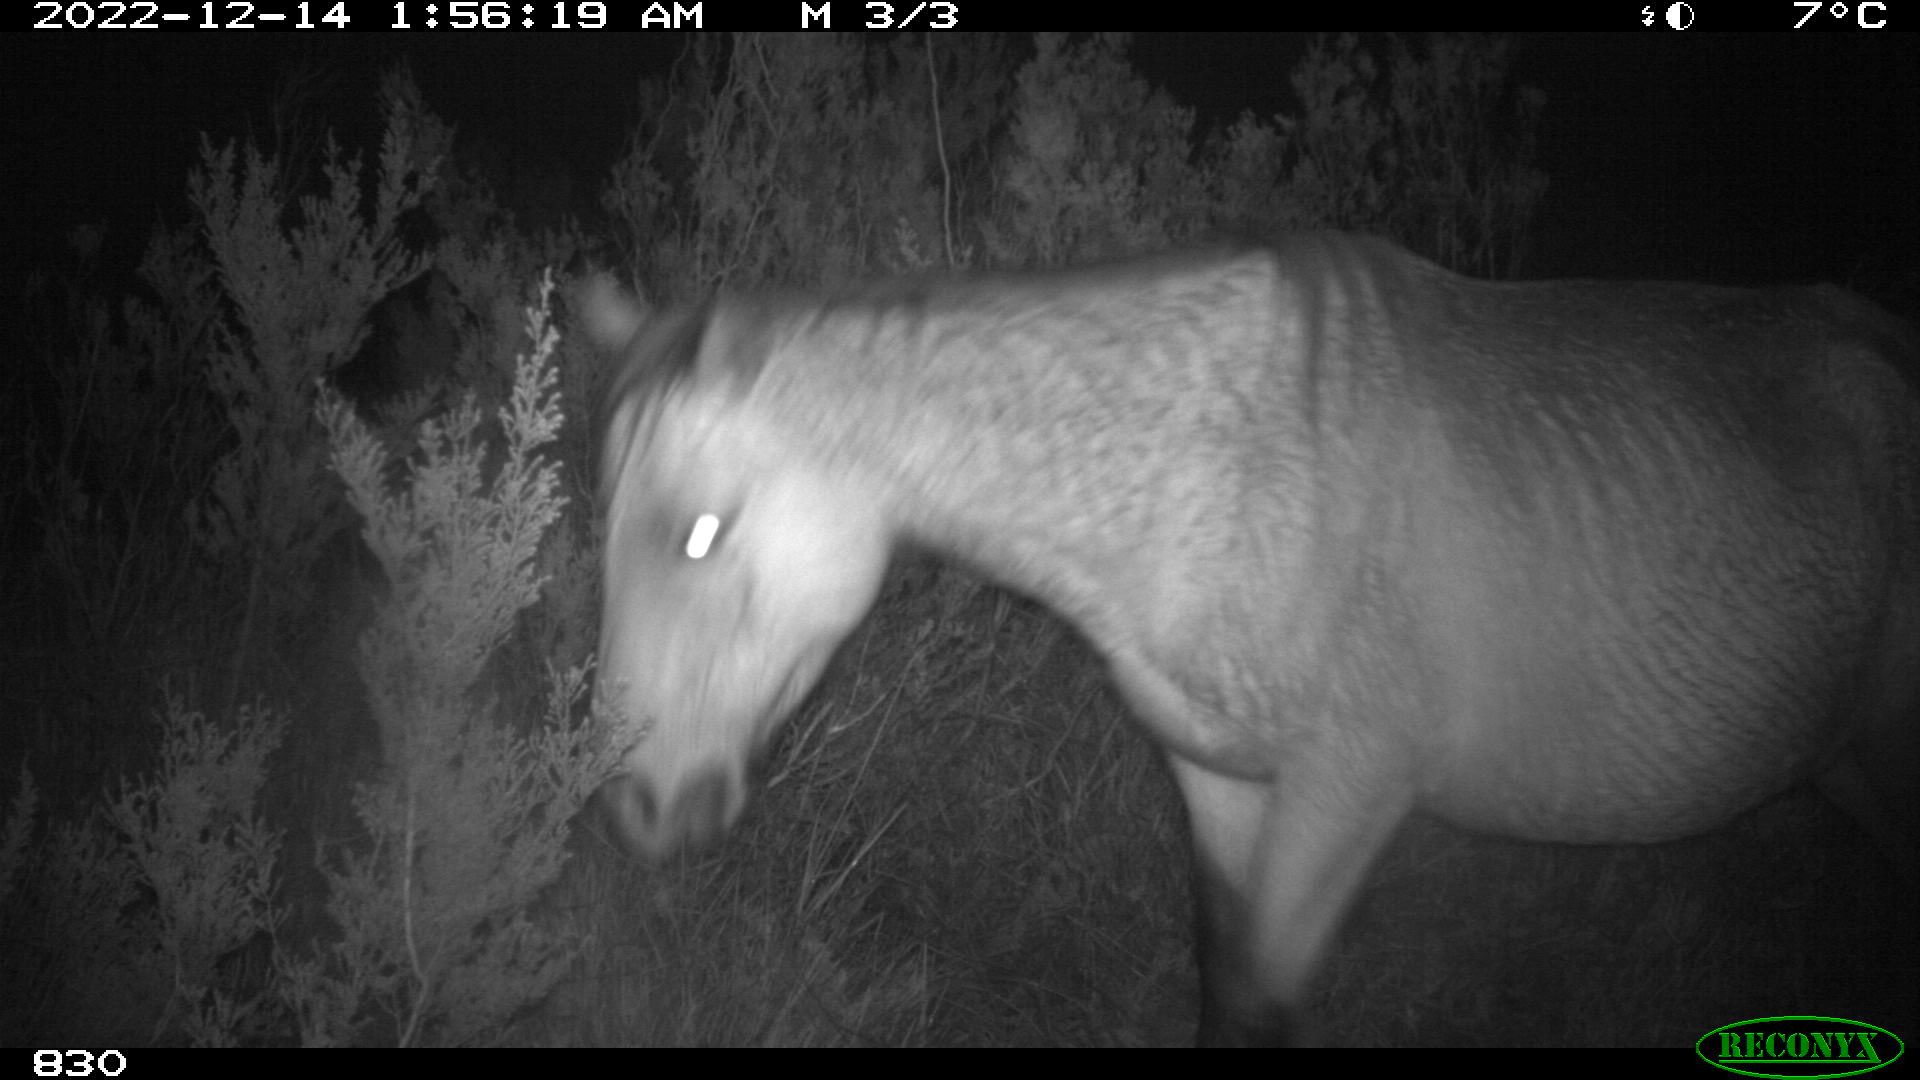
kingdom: Animalia
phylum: Chordata
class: Mammalia
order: Perissodactyla
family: Equidae
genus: Equus
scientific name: Equus caballus
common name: Horse
